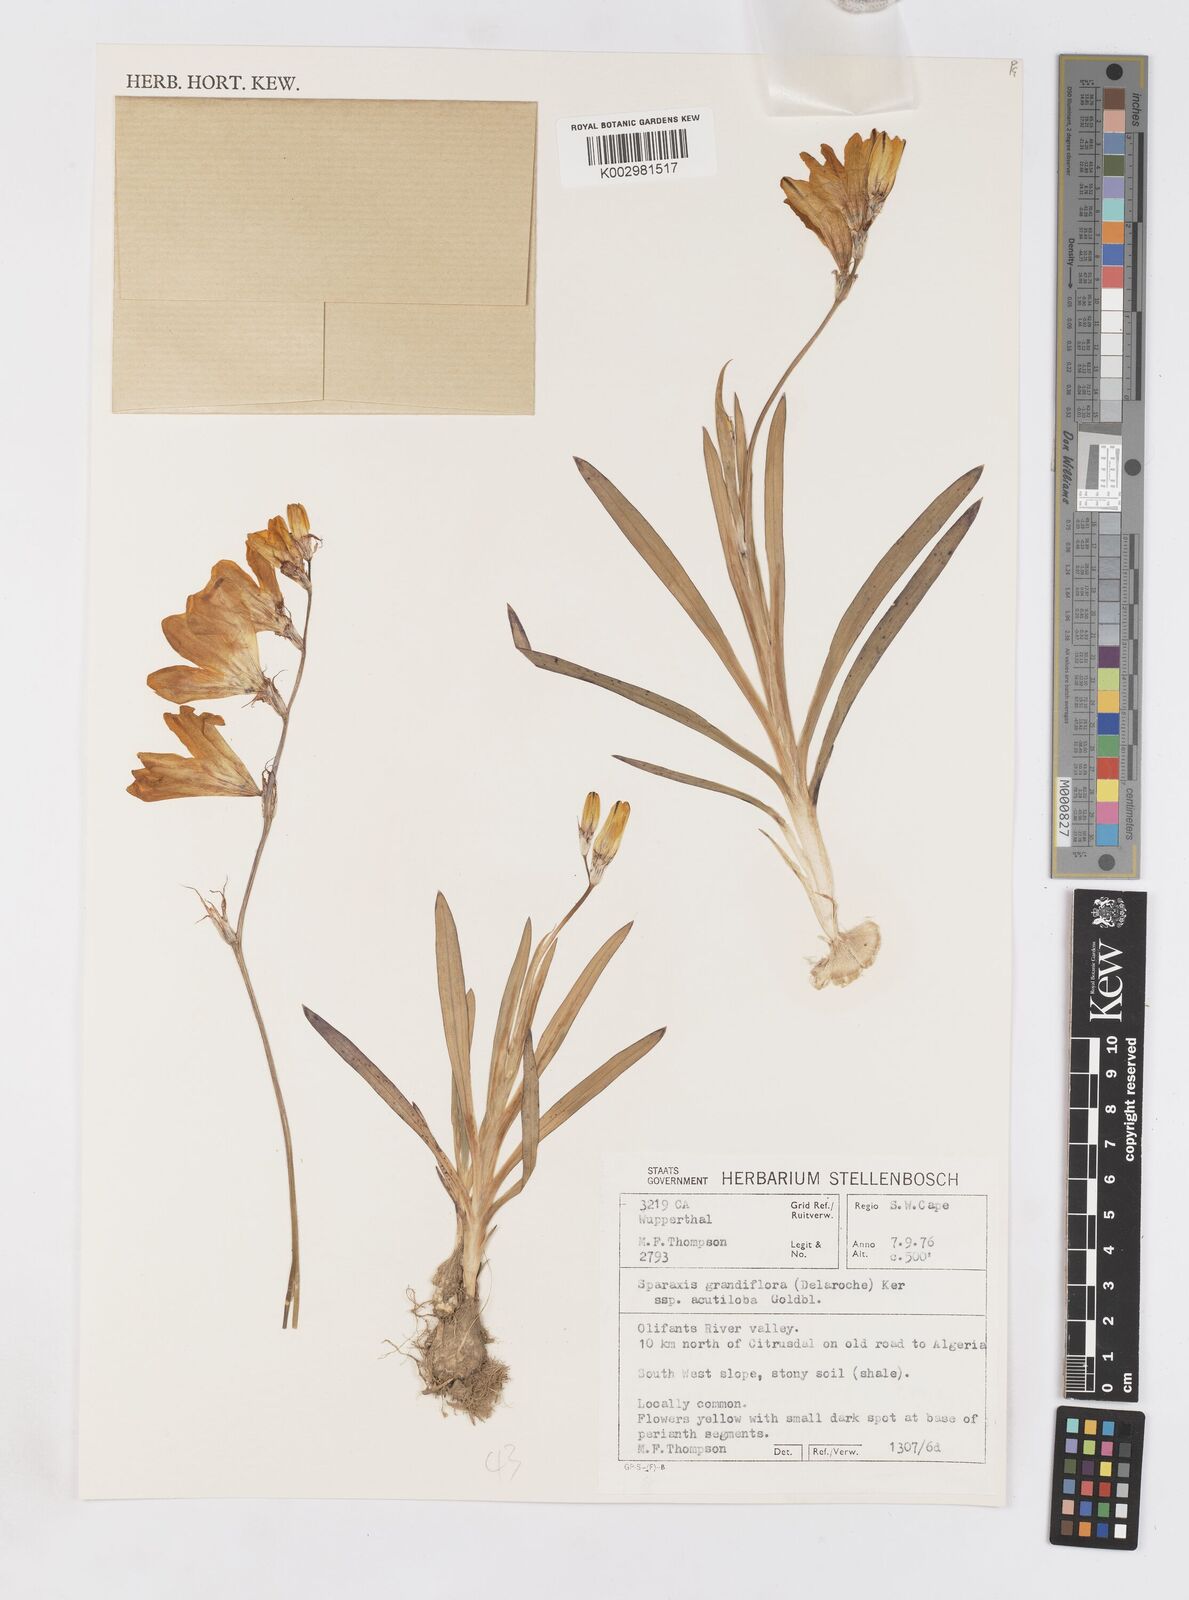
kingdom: Plantae
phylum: Tracheophyta
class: Liliopsida
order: Asparagales
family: Iridaceae
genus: Sparaxis
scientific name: Sparaxis grandiflora
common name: Plain harlequin-flower
